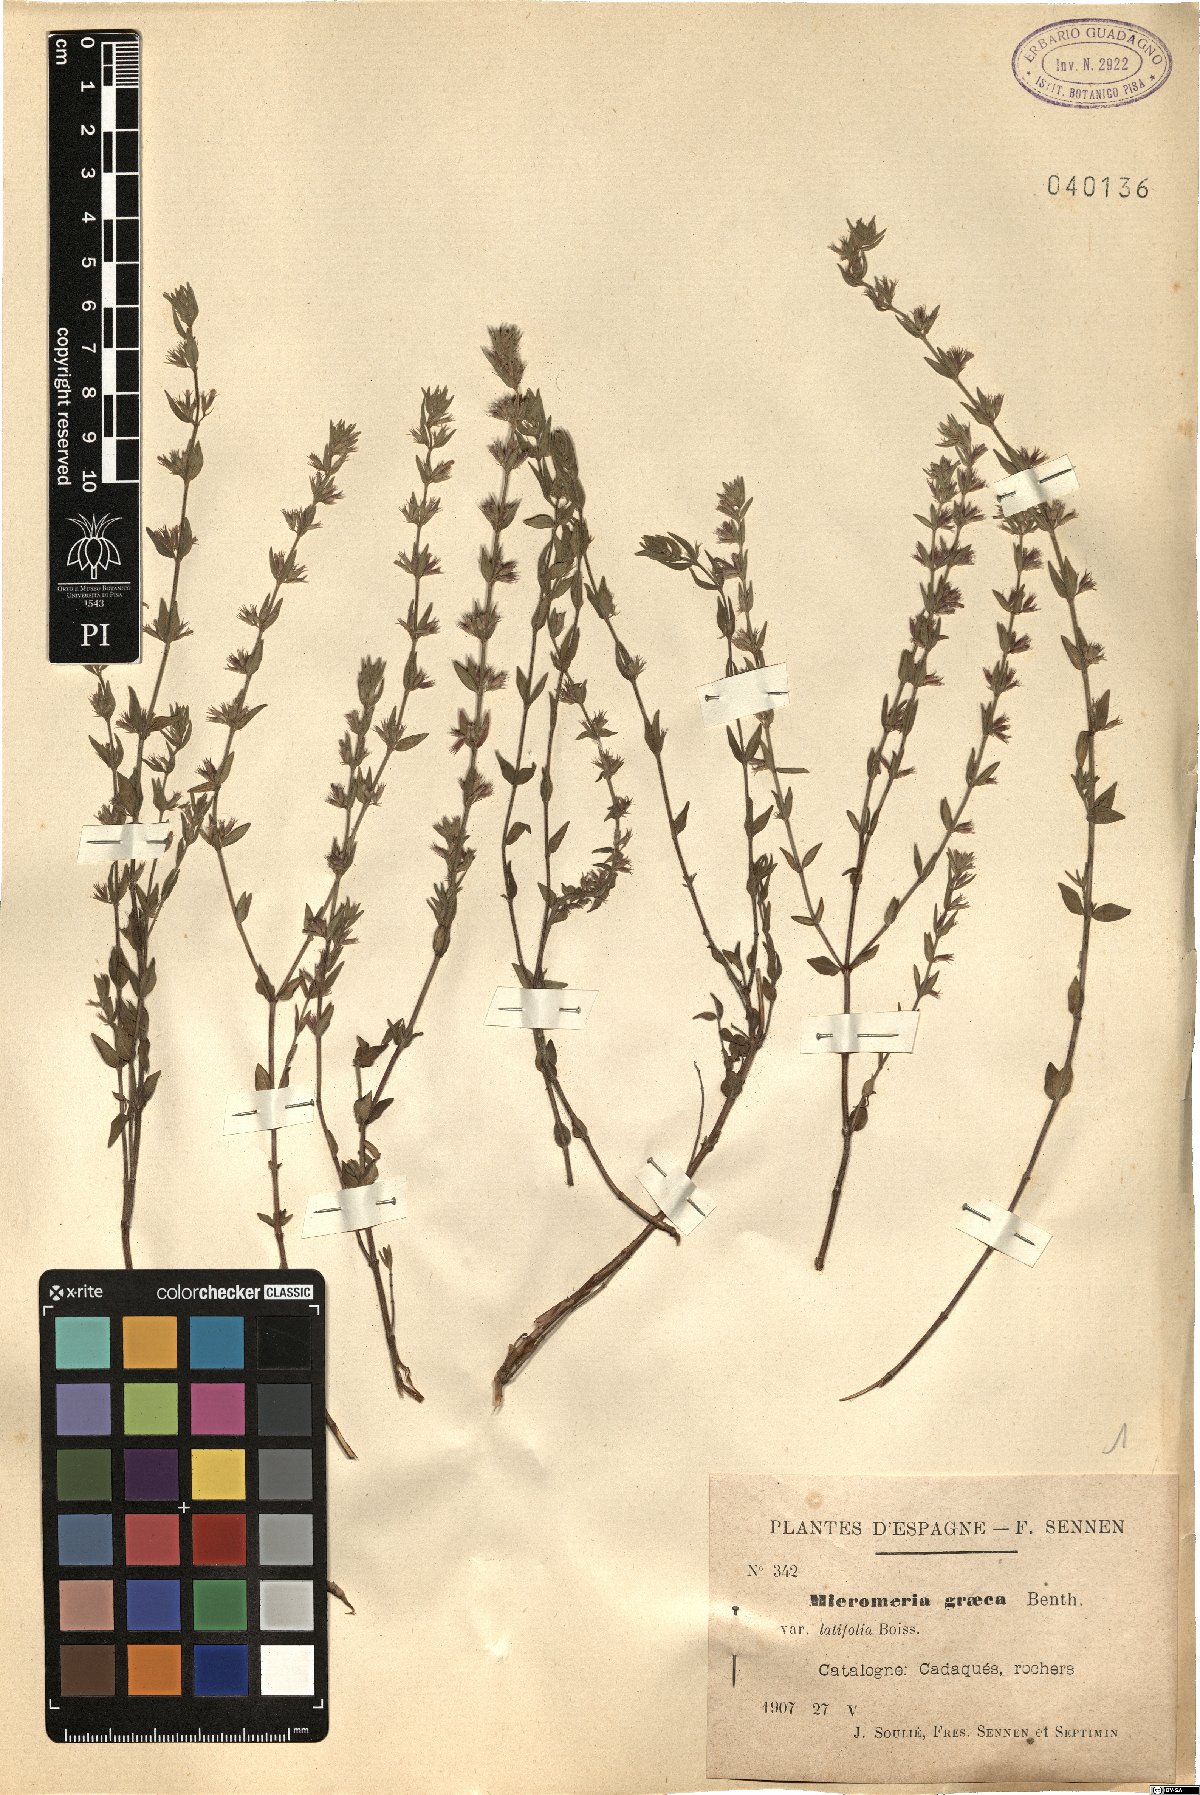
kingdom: Plantae
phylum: Tracheophyta
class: Magnoliopsida
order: Lamiales
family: Lamiaceae
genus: Micromeria
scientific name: Micromeria graeca
